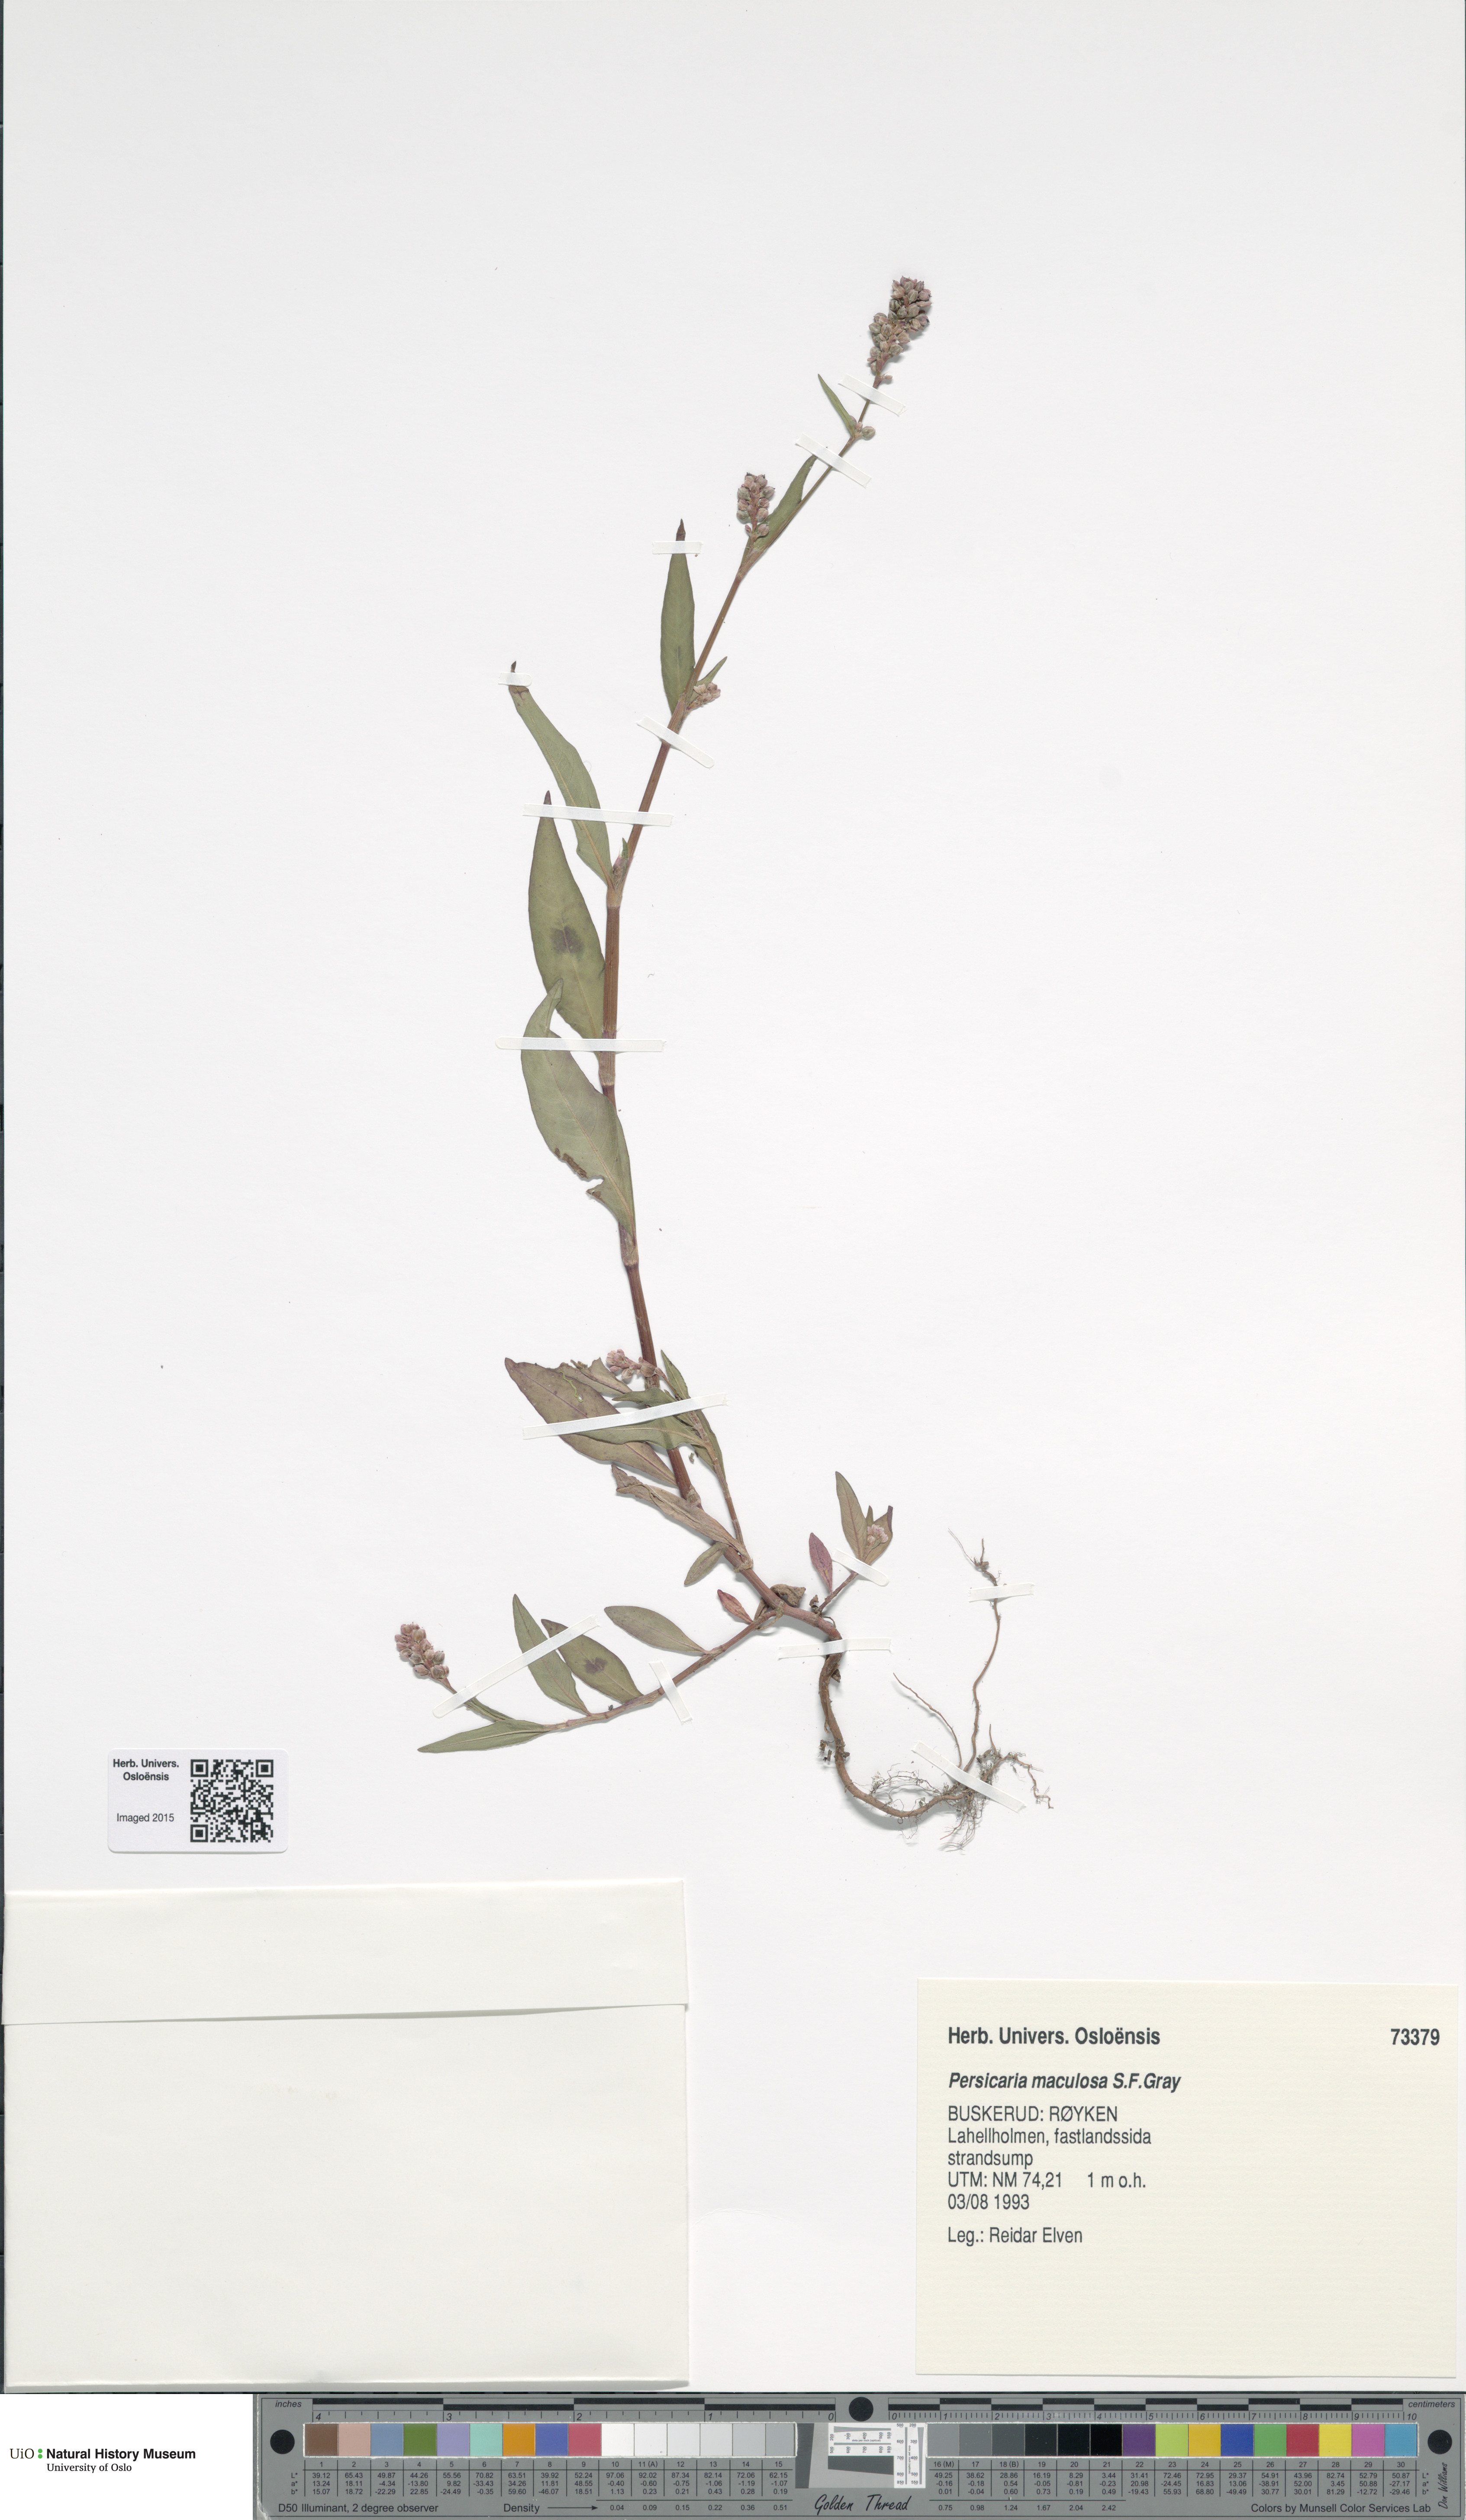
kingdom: Plantae
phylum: Tracheophyta
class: Magnoliopsida
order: Caryophyllales
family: Polygonaceae
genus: Persicaria
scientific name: Persicaria maculosa
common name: Redshank
